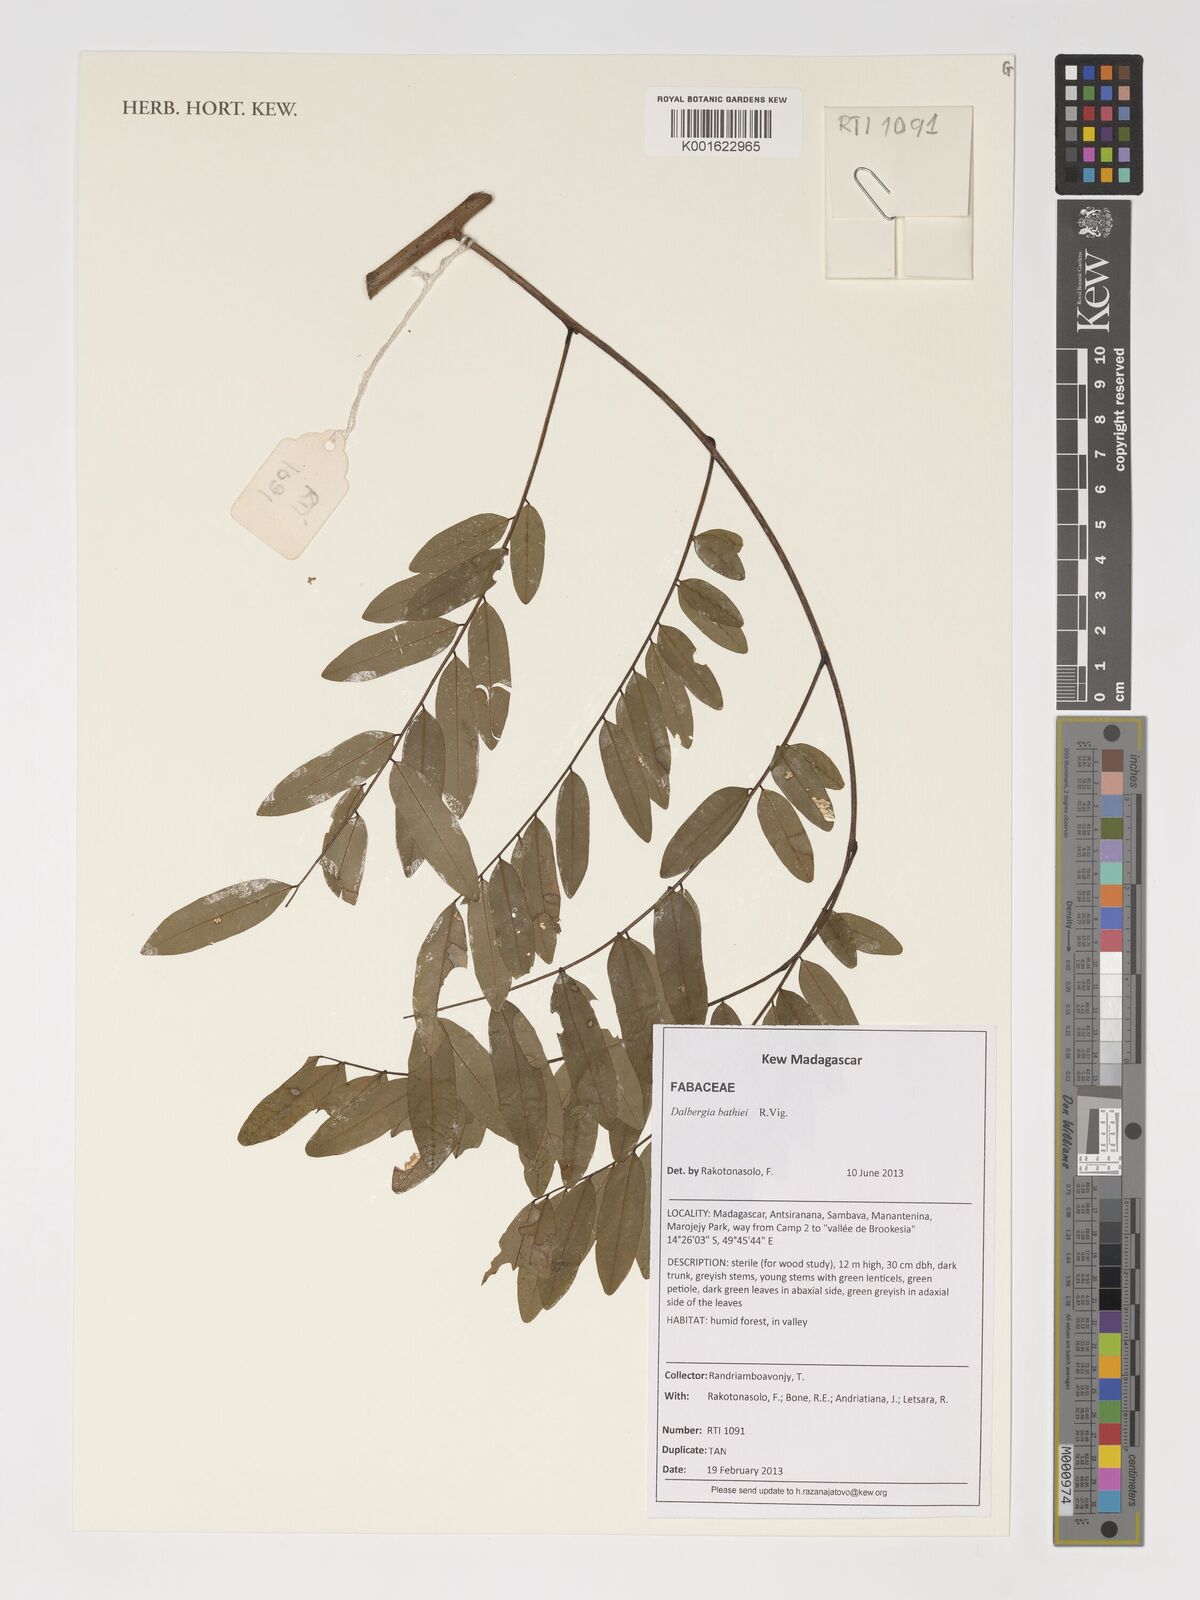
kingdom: Plantae
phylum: Tracheophyta
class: Magnoliopsida
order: Fabales
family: Fabaceae
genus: Dalbergia
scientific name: Dalbergia bathiei
